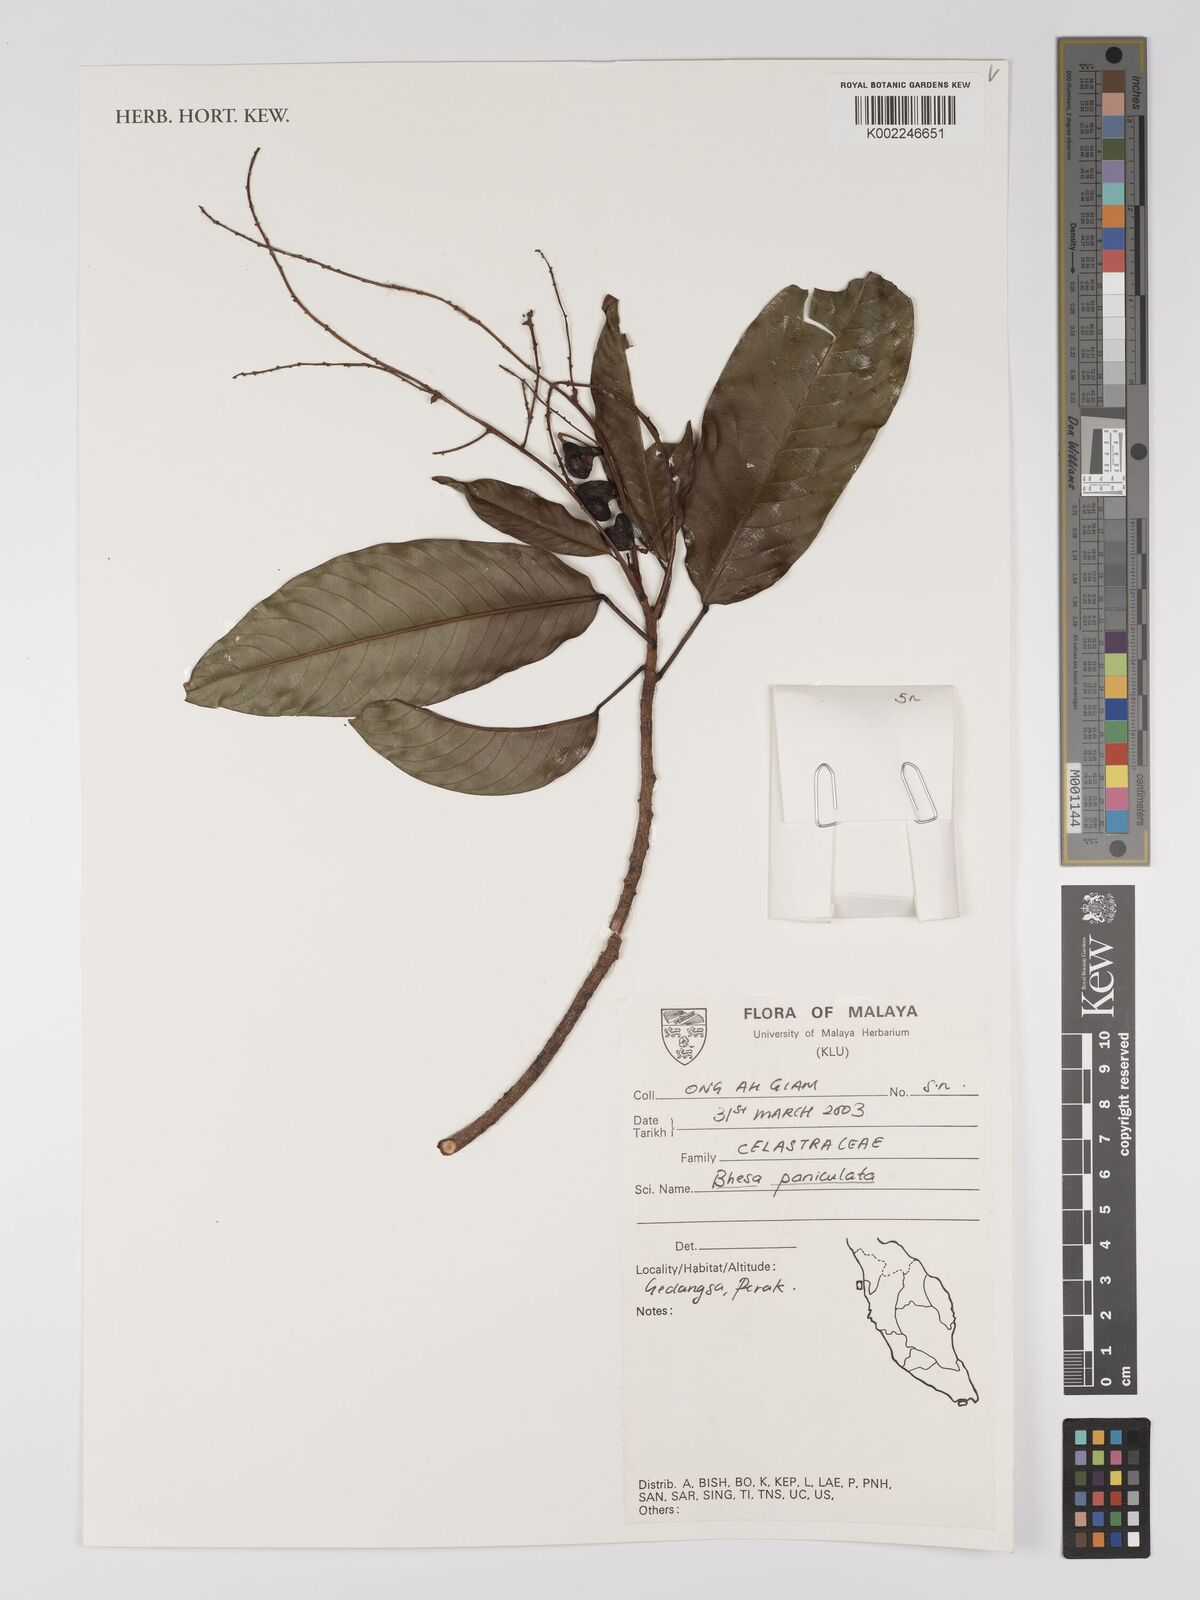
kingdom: Plantae
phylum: Tracheophyta
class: Magnoliopsida
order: Malpighiales
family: Centroplacaceae
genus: Bhesa
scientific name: Bhesa paniculata
